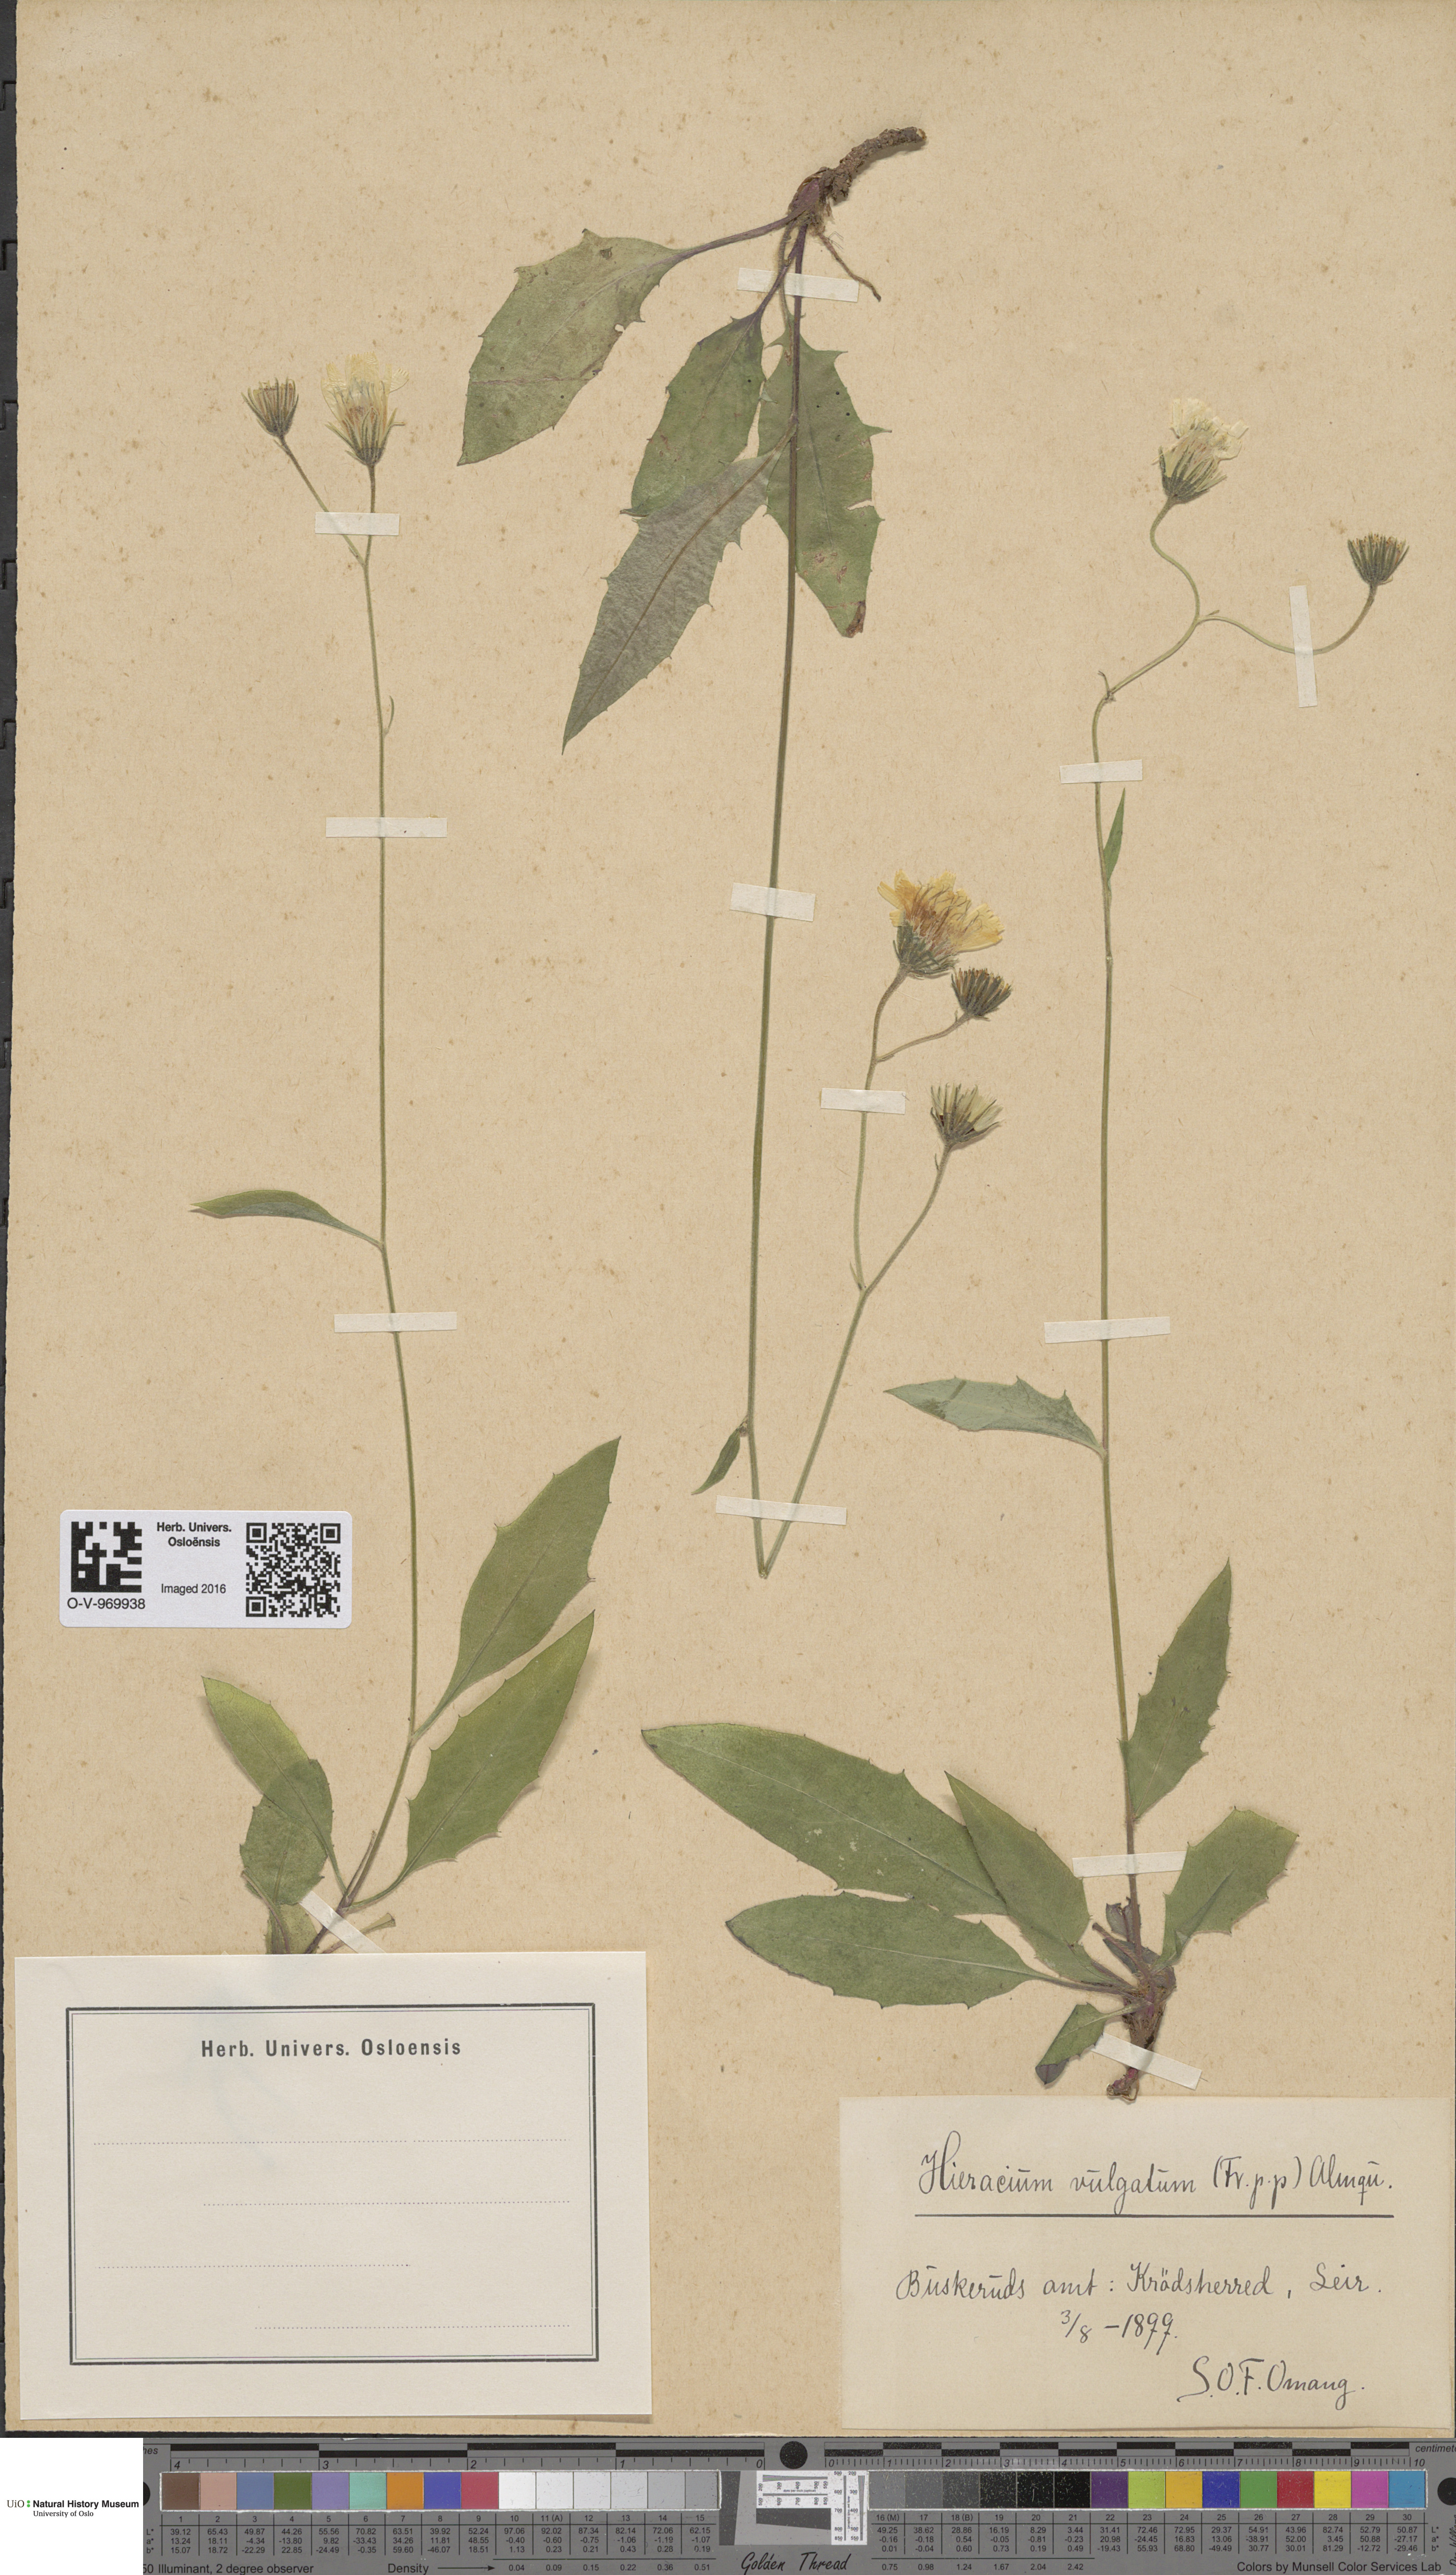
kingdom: Plantae
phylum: Tracheophyta
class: Magnoliopsida
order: Asterales
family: Asteraceae
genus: Hieracium
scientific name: Hieracium vulgatum
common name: Common hawkweed
